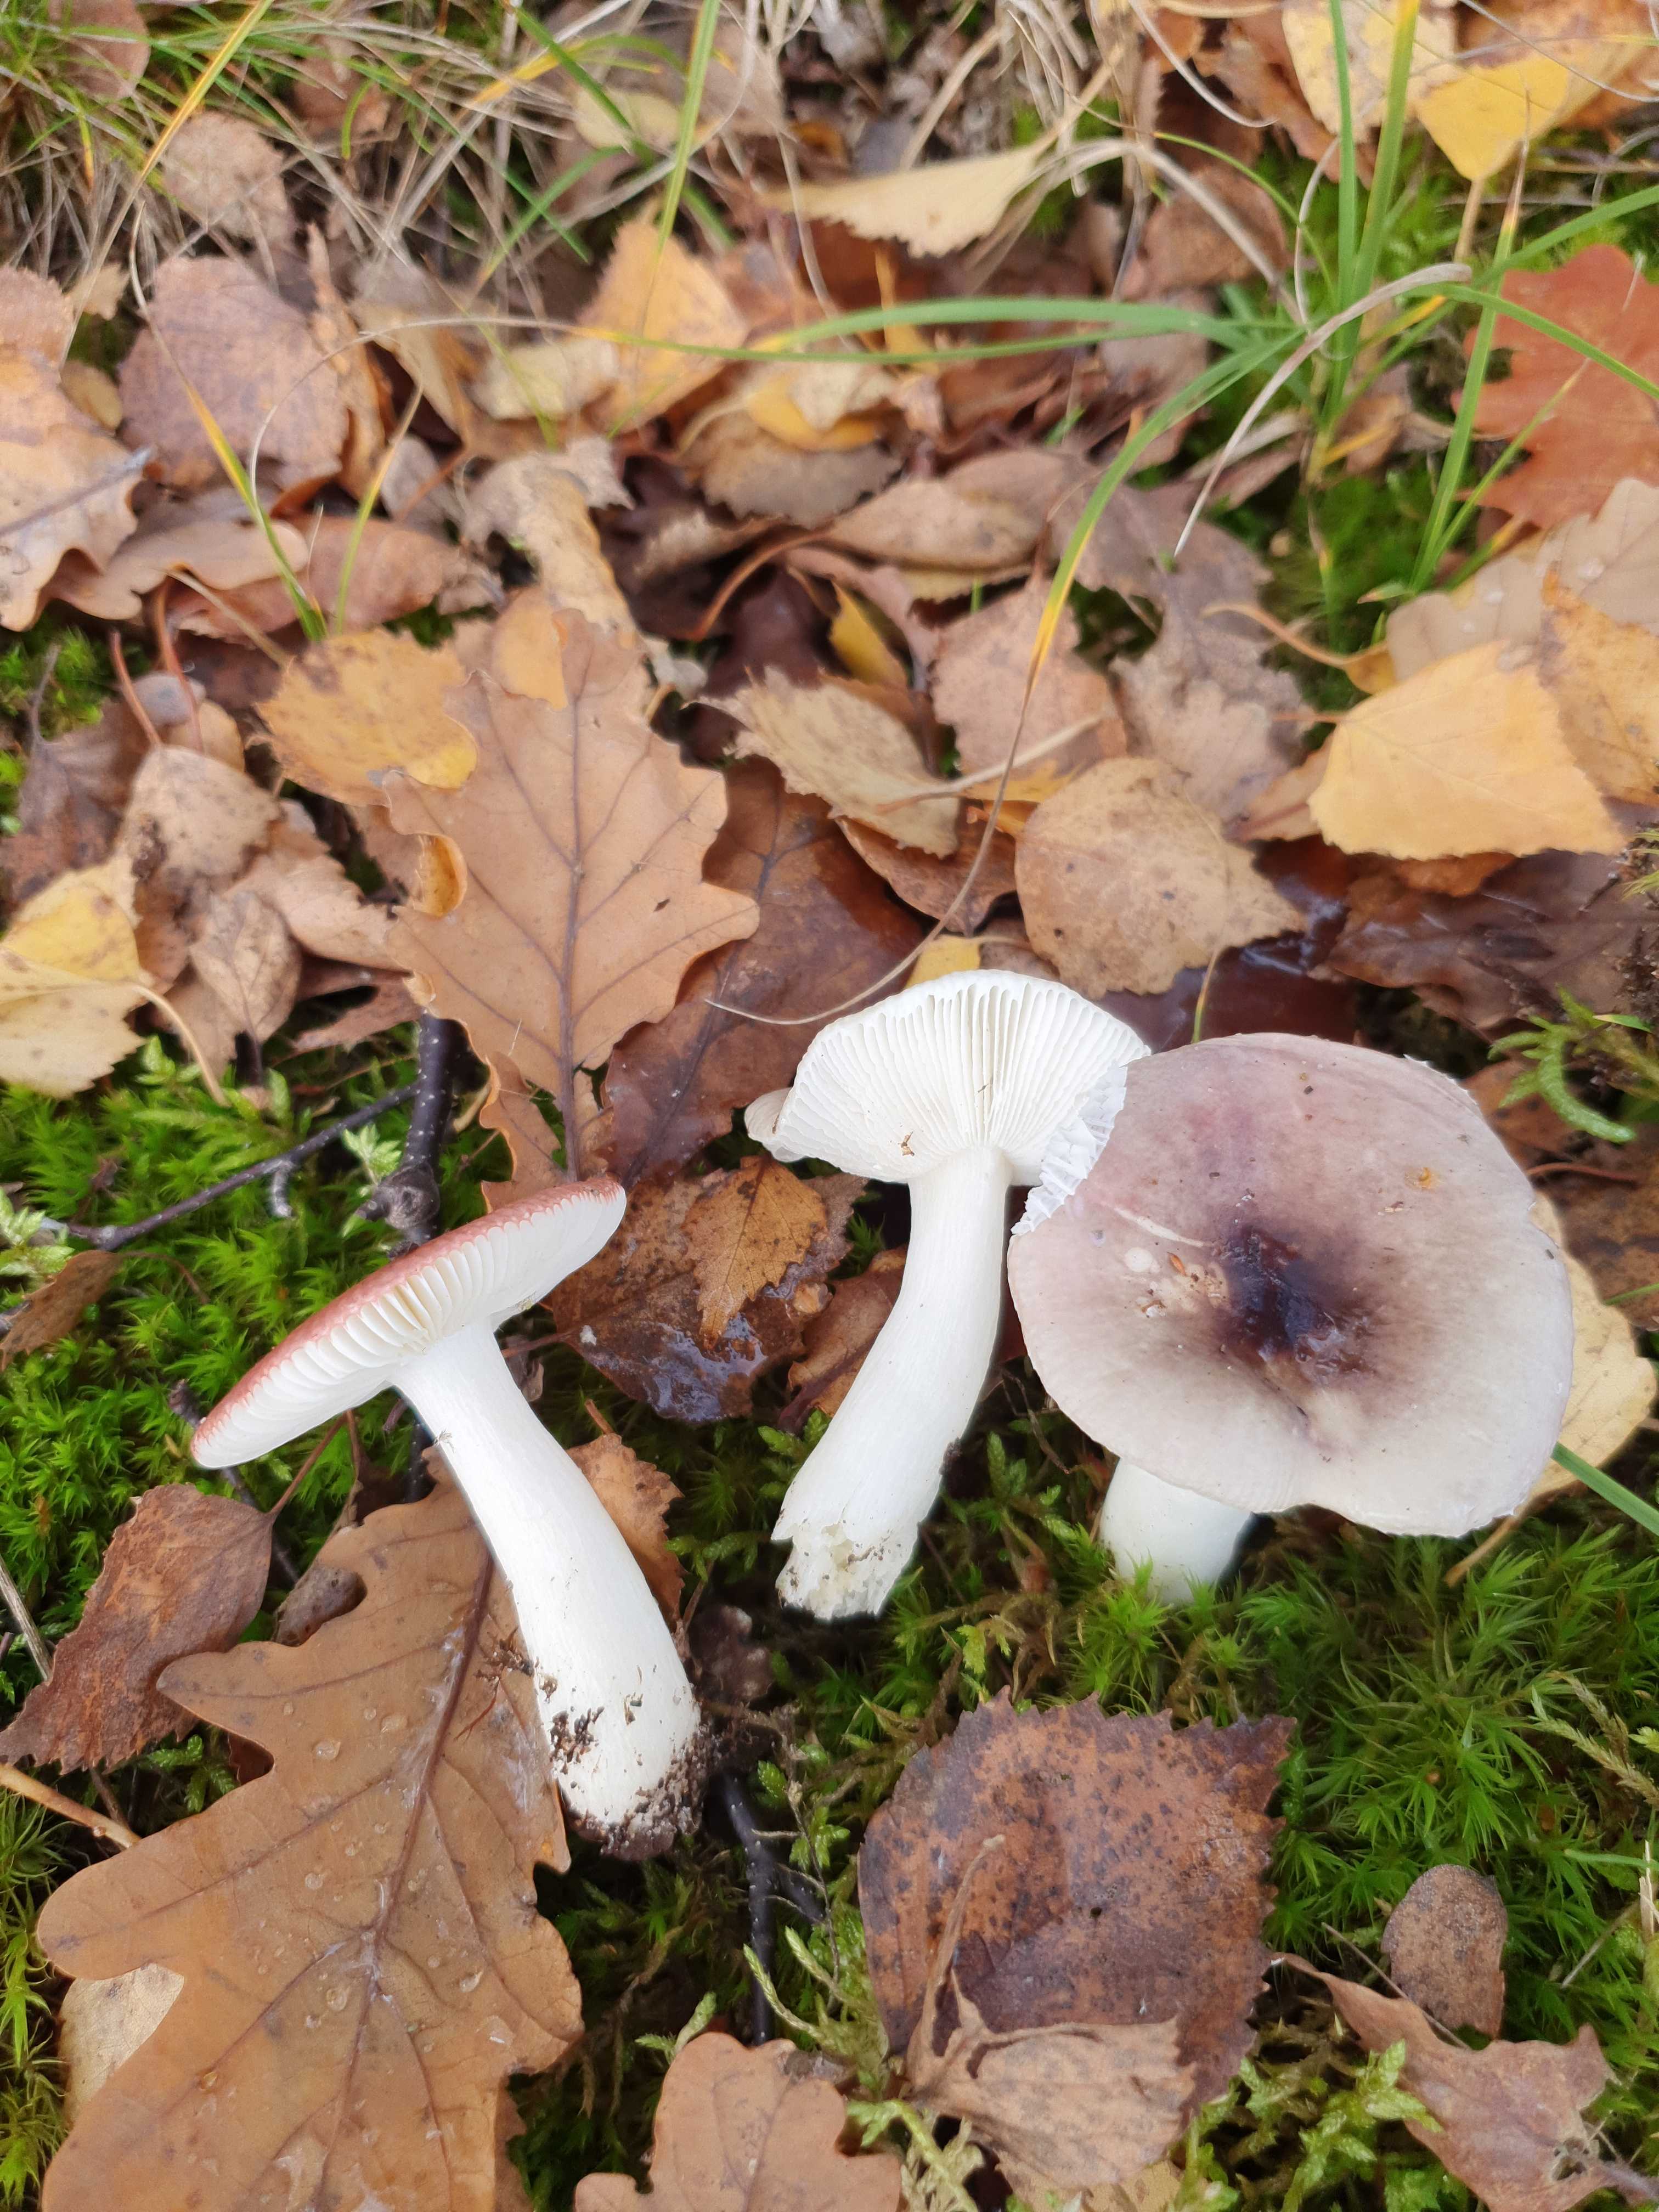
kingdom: Fungi
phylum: Basidiomycota
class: Agaricomycetes
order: Russulales
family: Russulaceae
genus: Russula
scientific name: Russula fragilis
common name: savbladet skørhat
